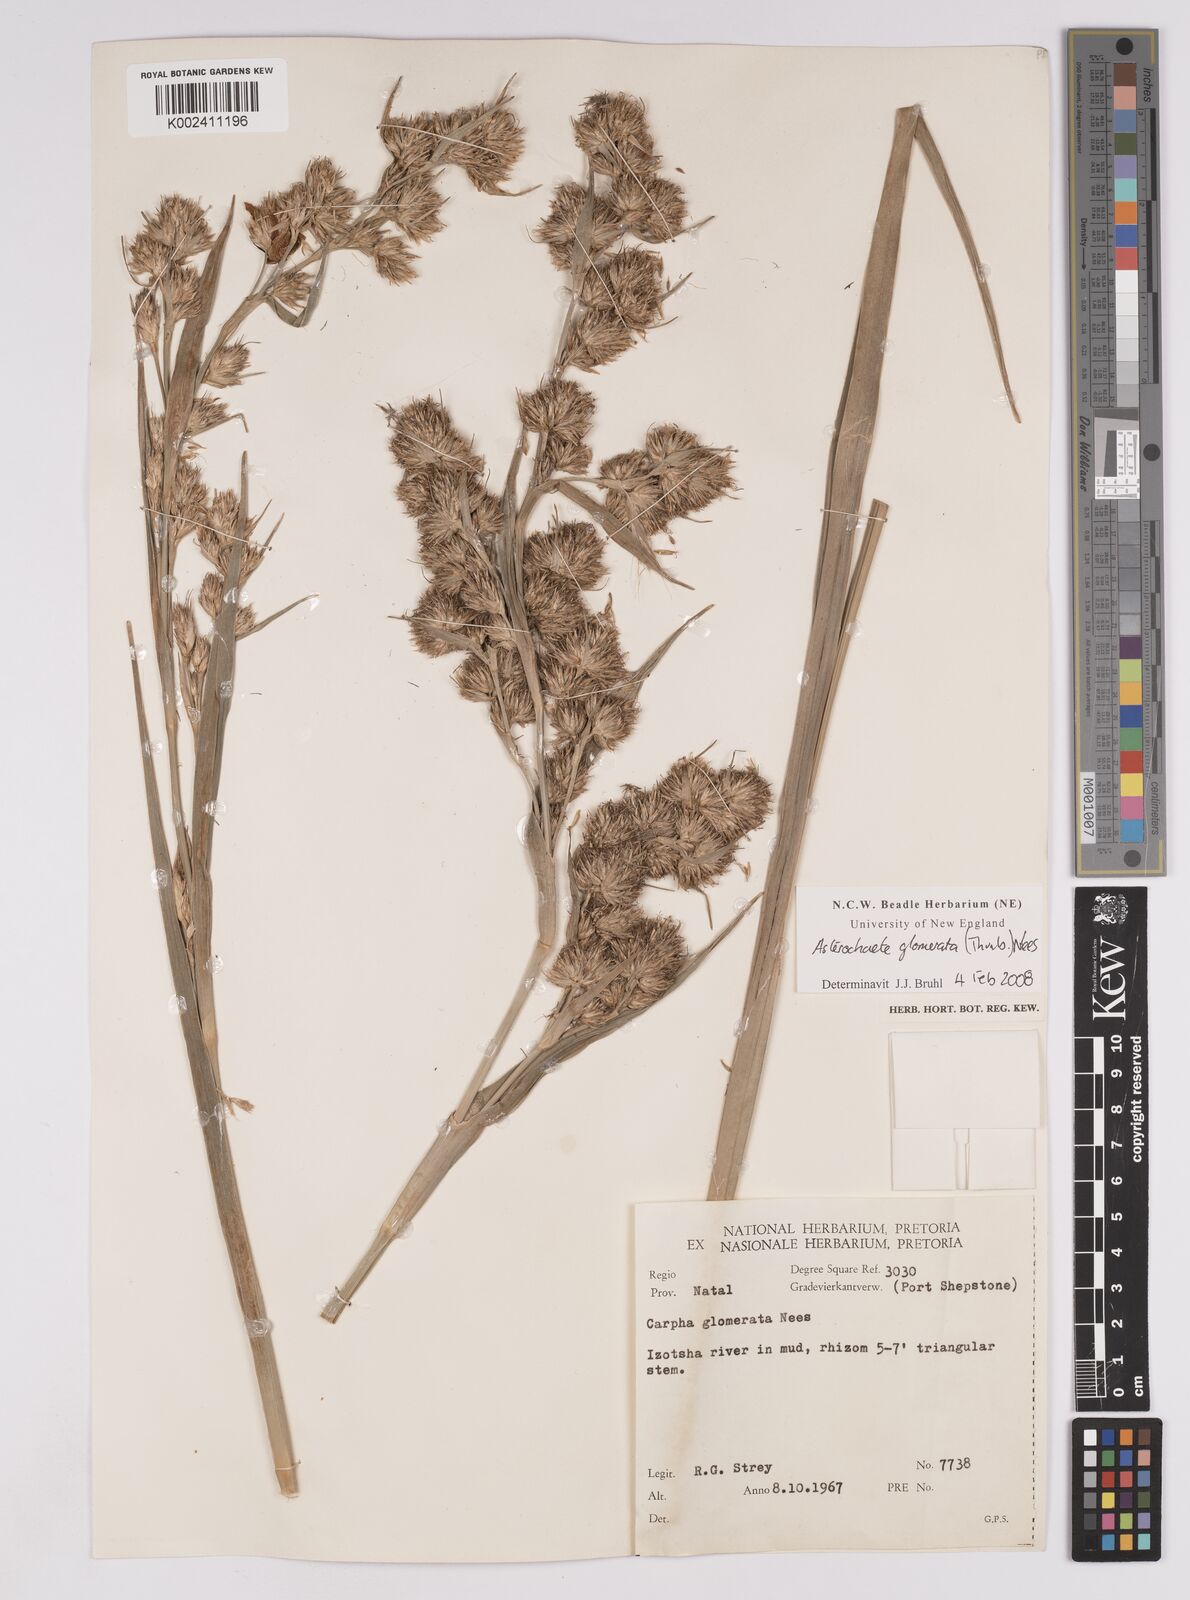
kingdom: Plantae
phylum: Tracheophyta
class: Liliopsida
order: Poales
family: Cyperaceae
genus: Carpha
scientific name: Carpha glomerata
